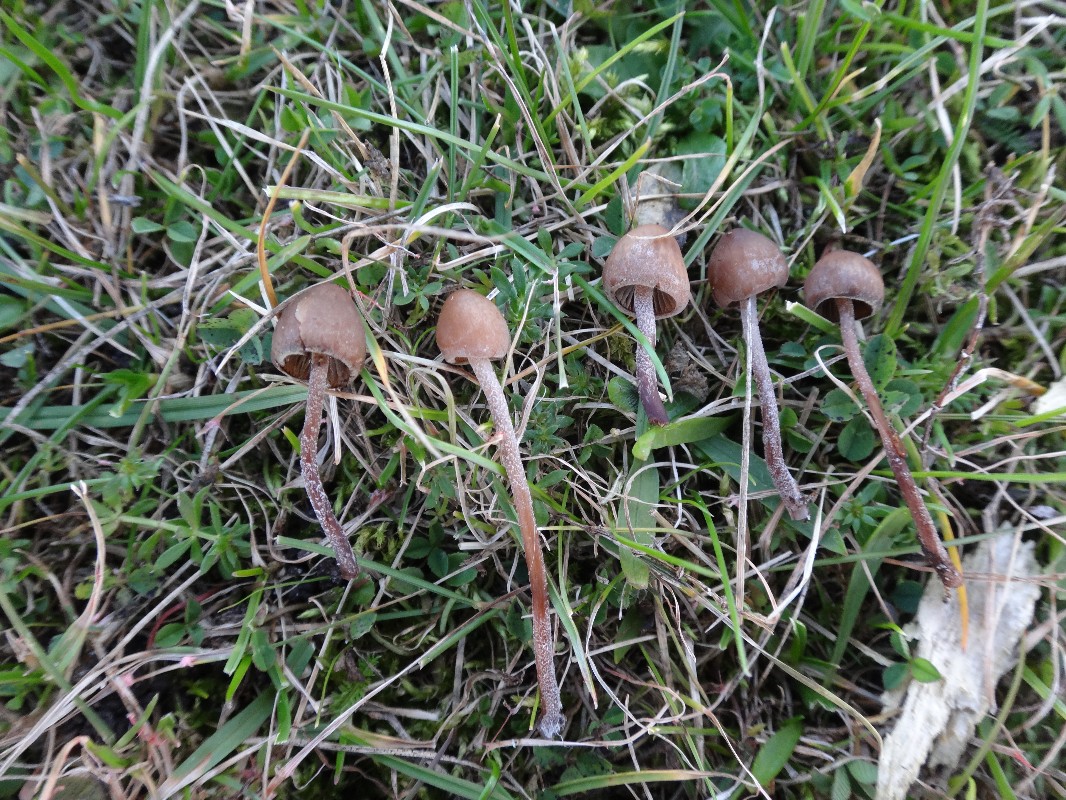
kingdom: Fungi
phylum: Basidiomycota
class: Agaricomycetes
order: Agaricales
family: Bolbitiaceae
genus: Panaeolus
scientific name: Panaeolus acuminatus
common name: høj glanshat
